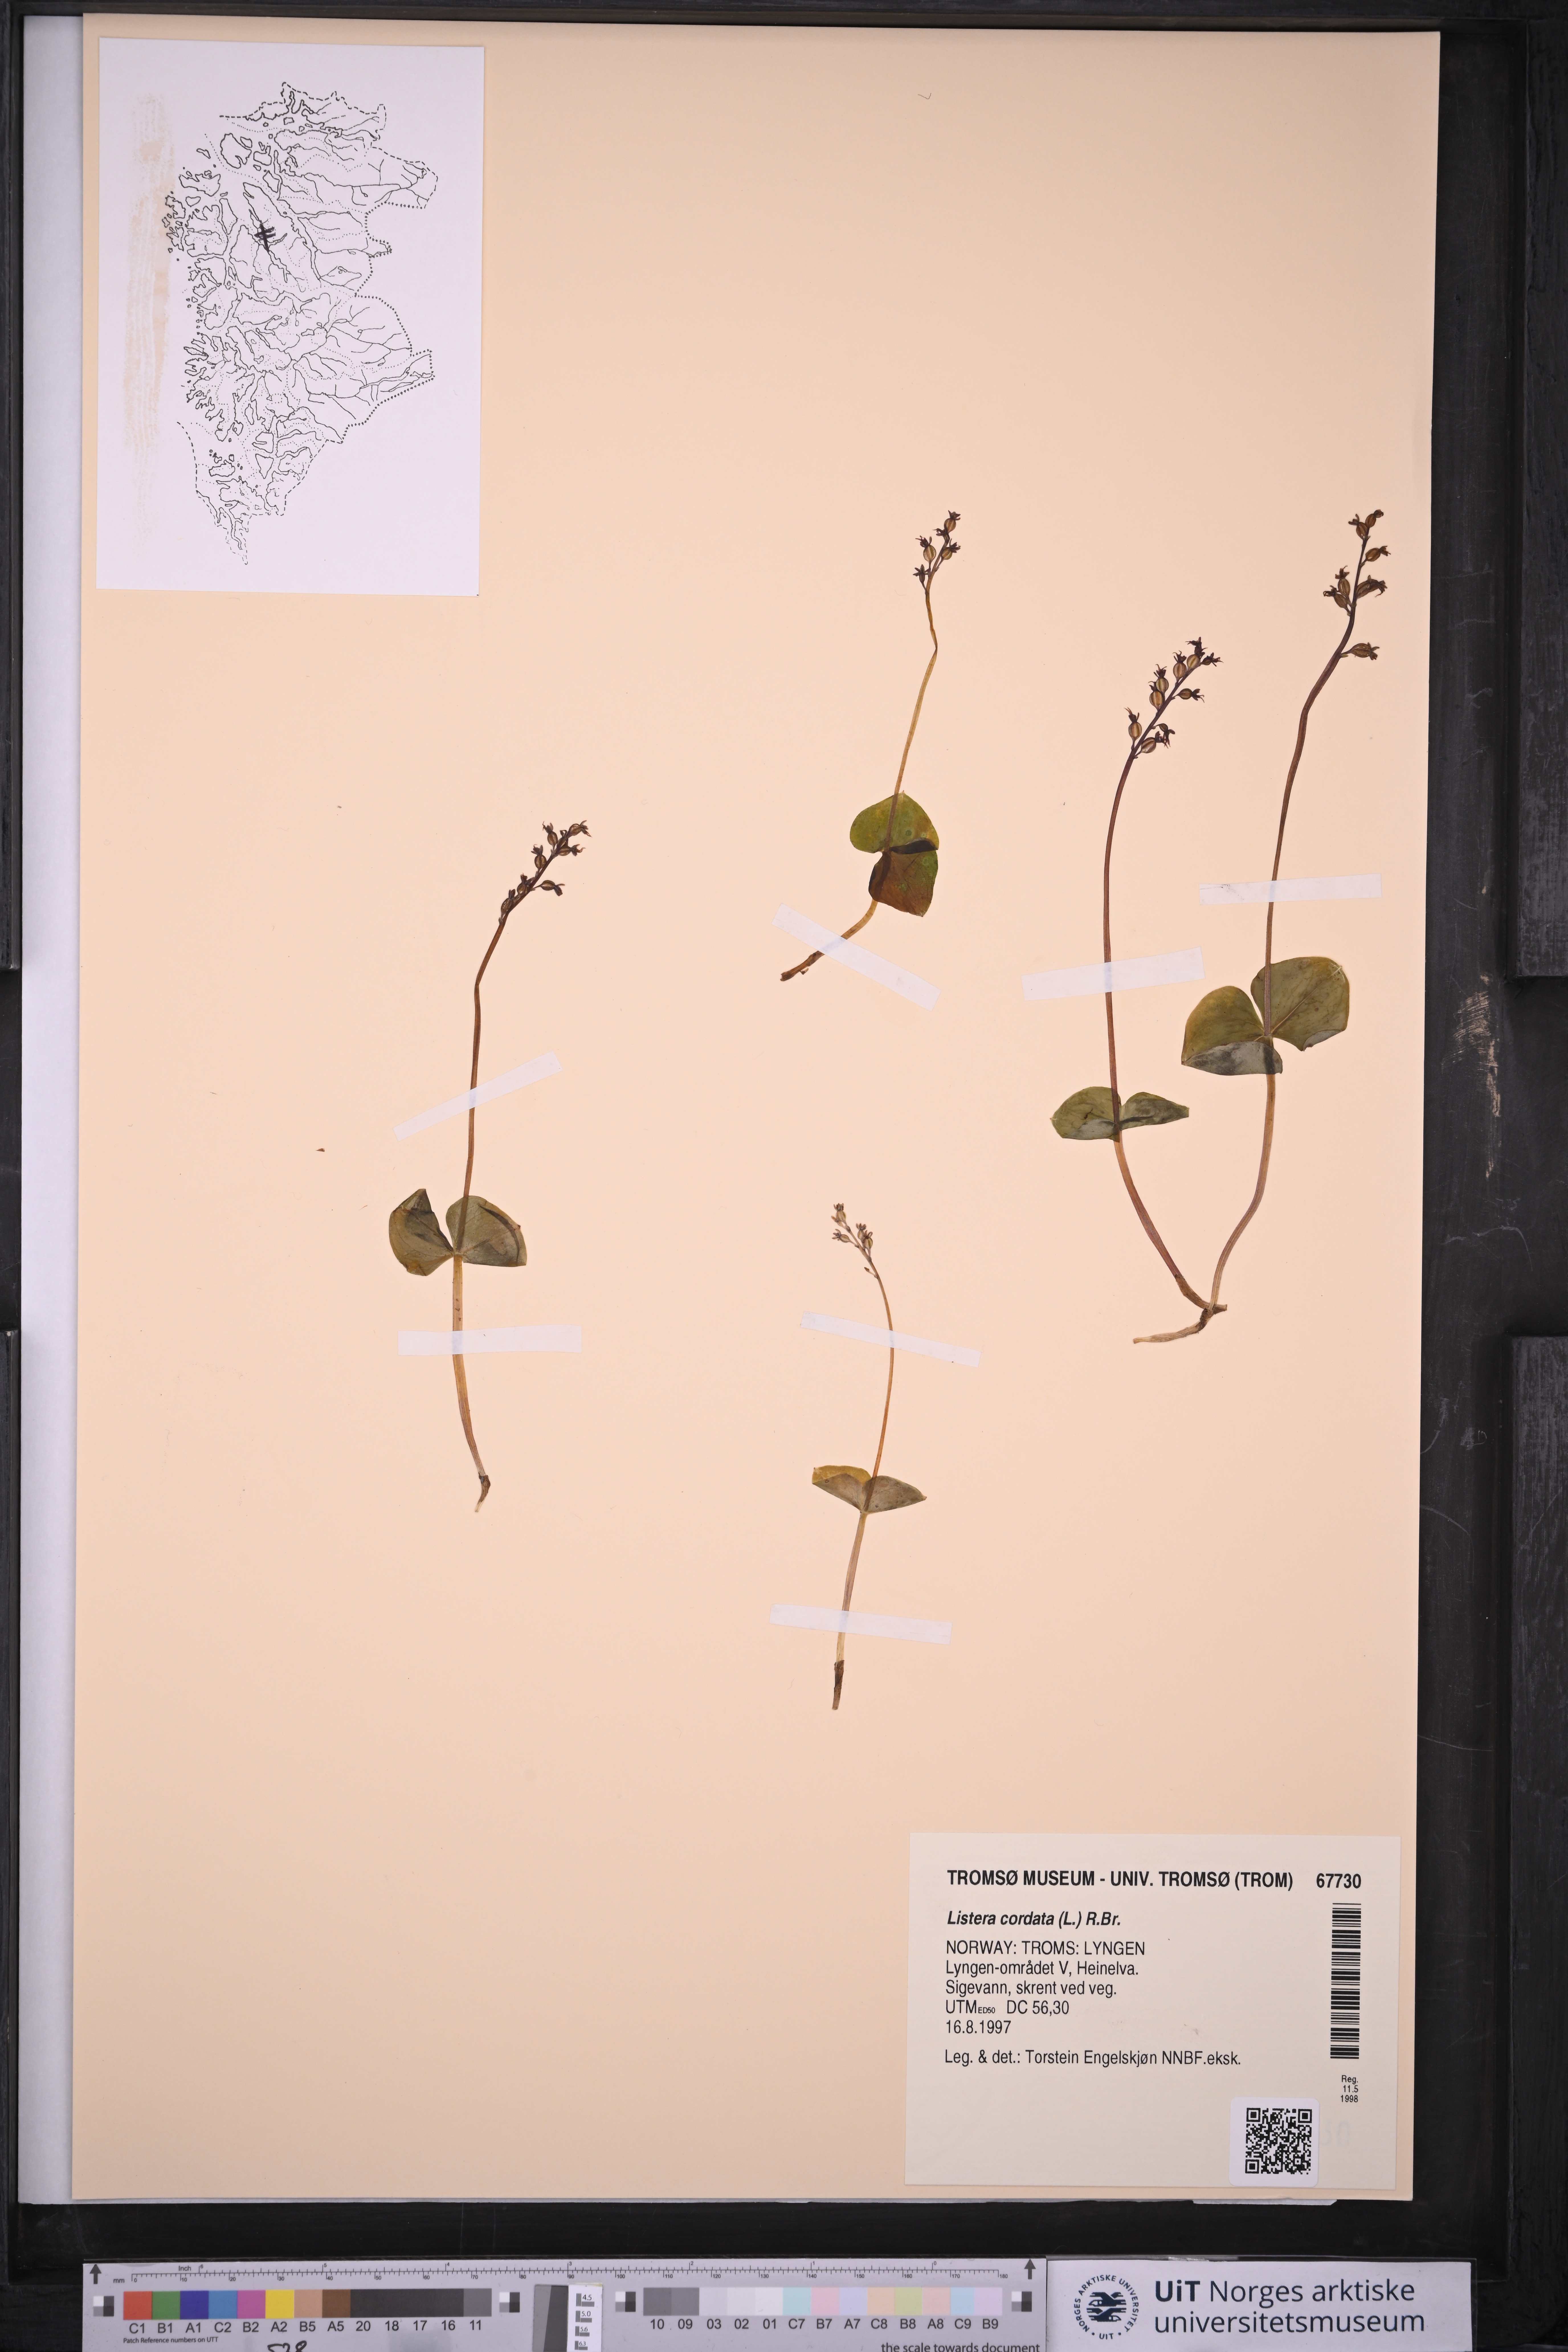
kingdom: Plantae
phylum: Tracheophyta
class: Liliopsida
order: Asparagales
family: Orchidaceae
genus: Neottia
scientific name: Neottia cordata
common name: Lesser twayblade
